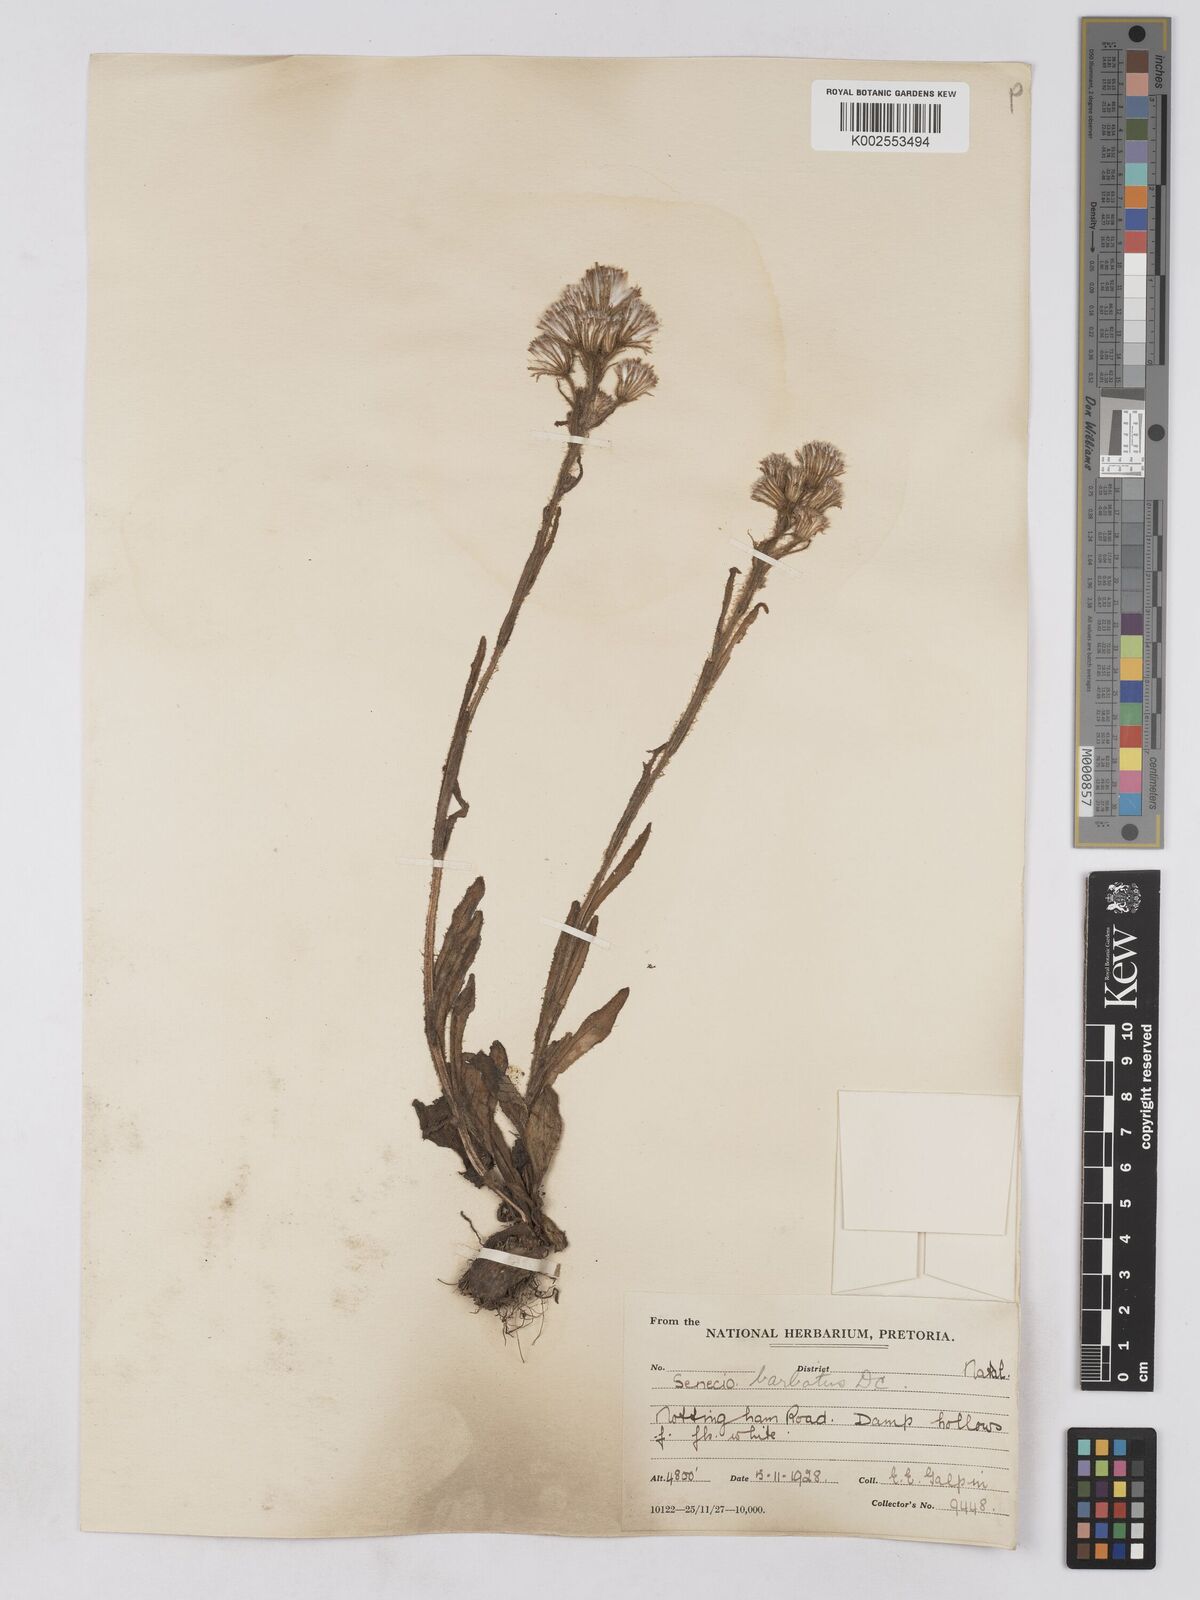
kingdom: Plantae
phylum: Tracheophyta
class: Magnoliopsida
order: Asterales
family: Asteraceae
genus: Senecio
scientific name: Senecio barbatus
